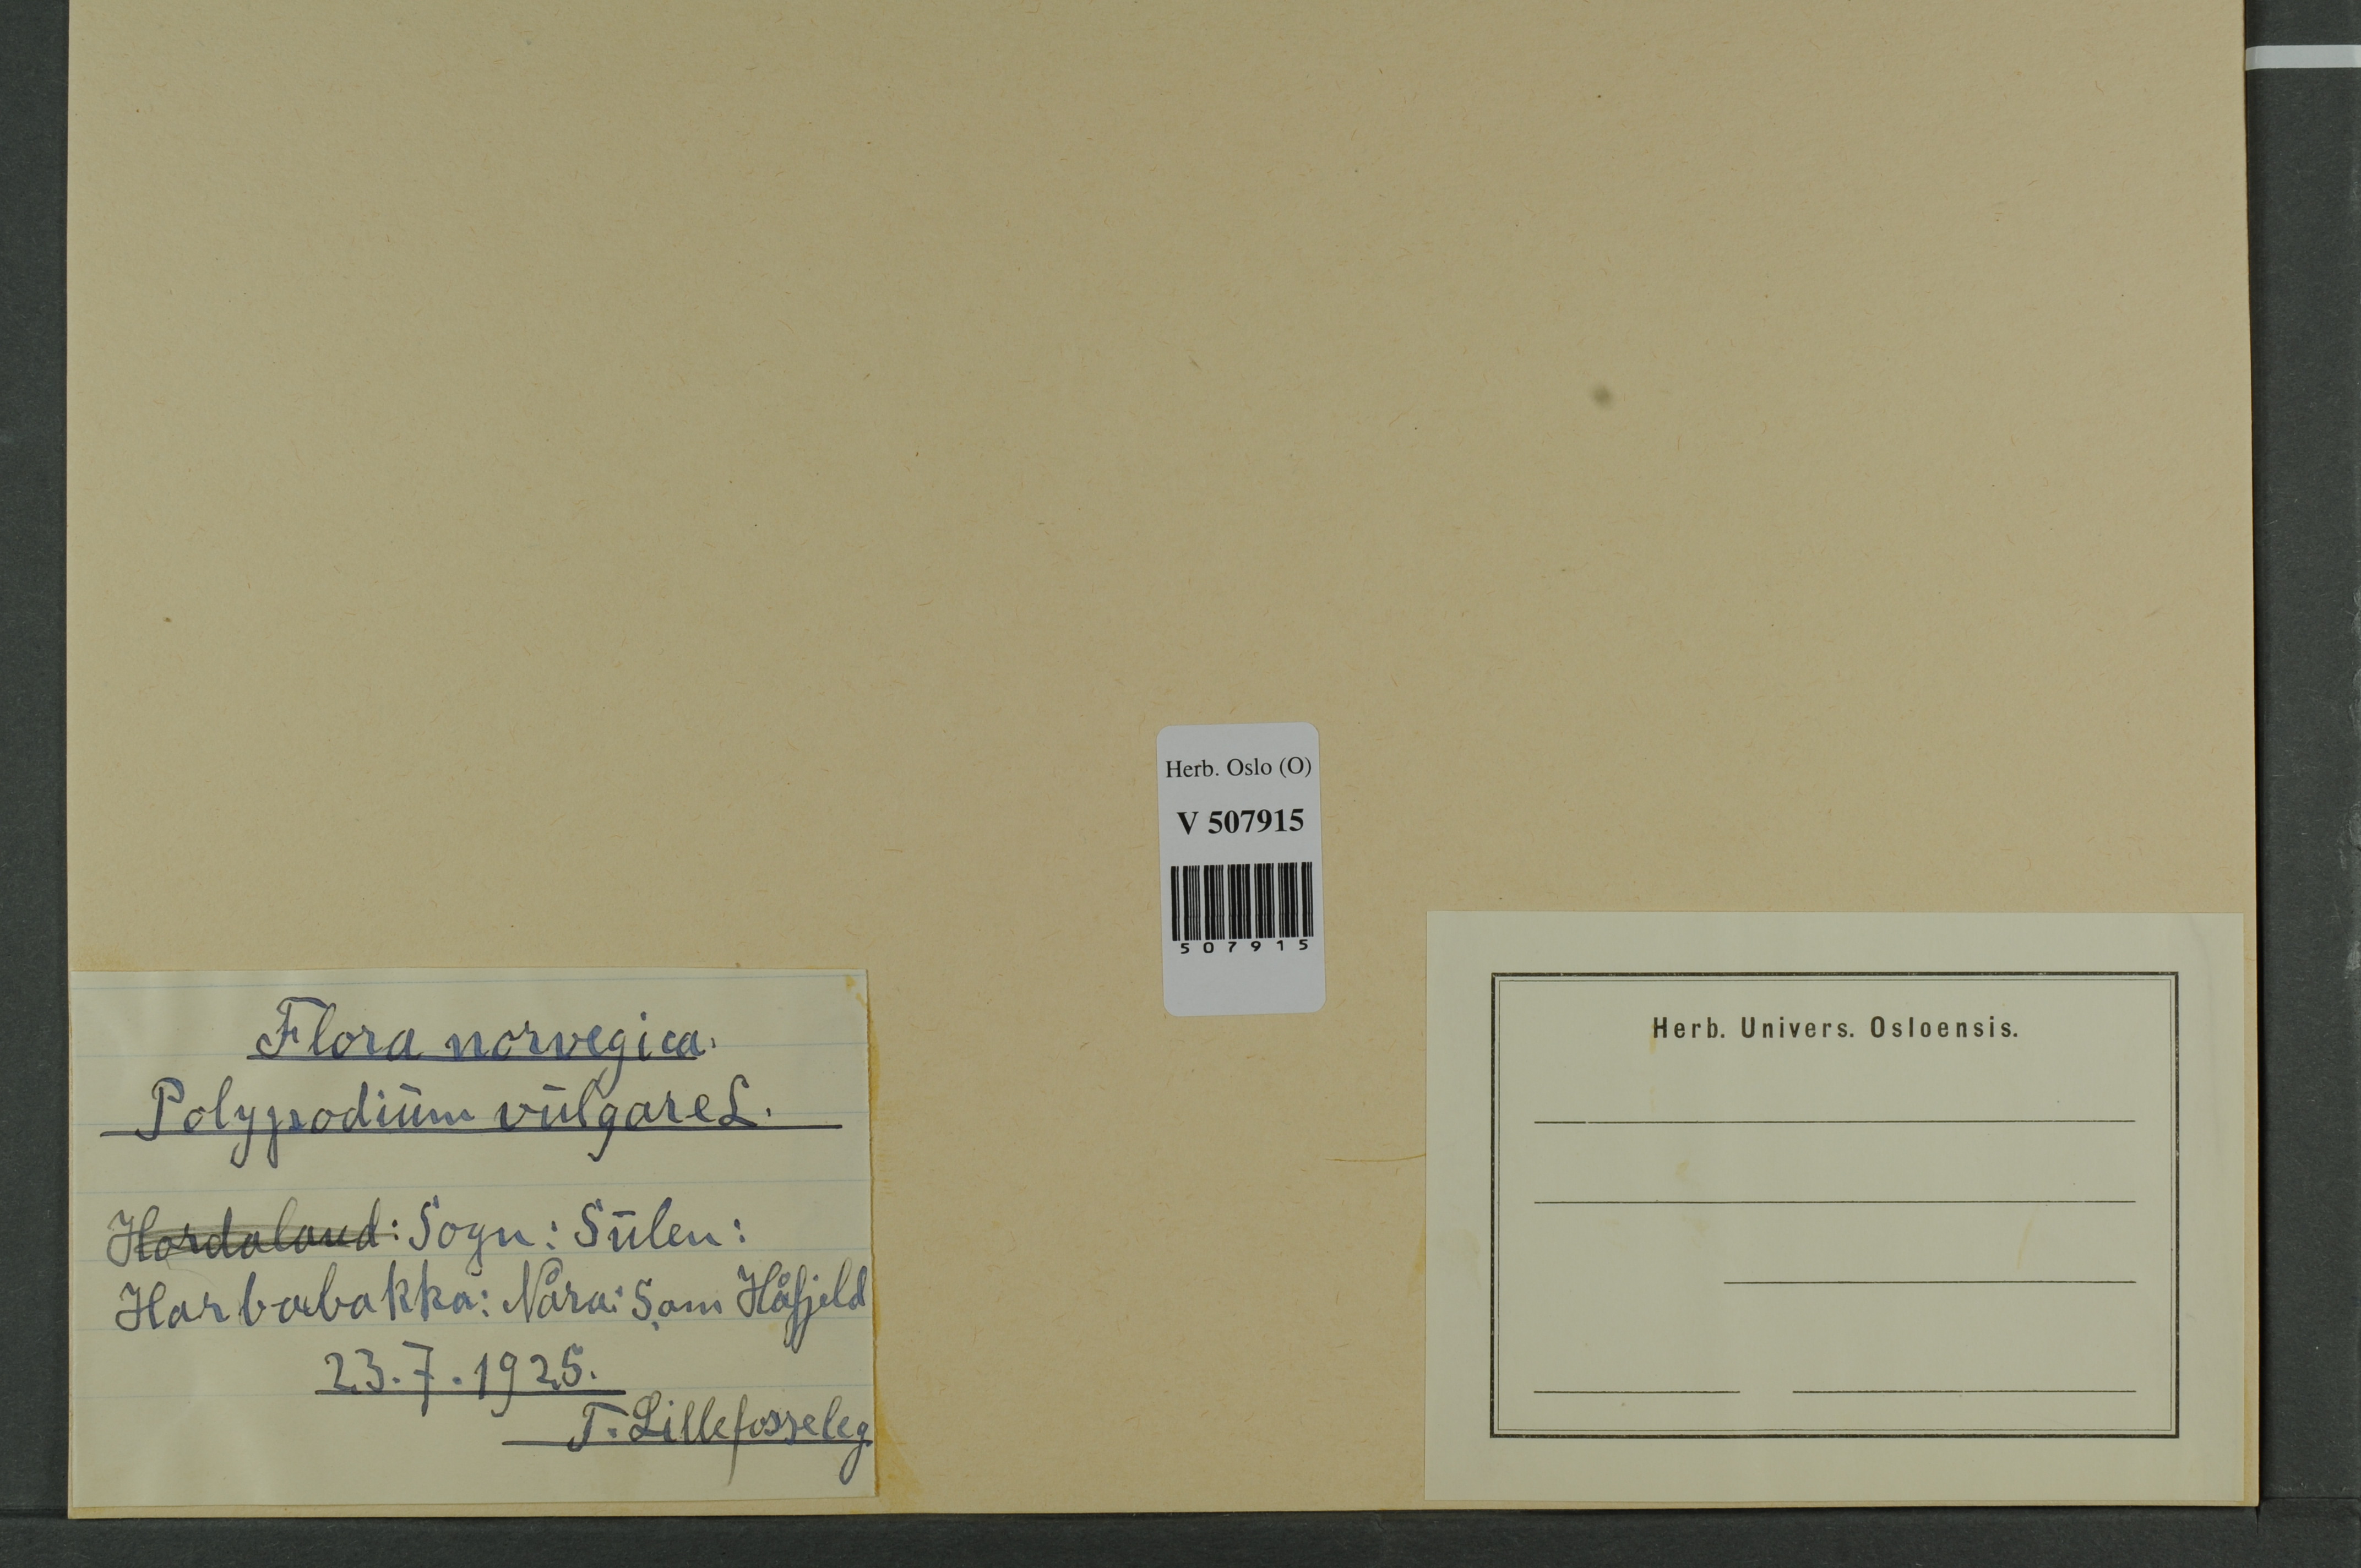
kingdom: Plantae
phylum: Tracheophyta
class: Polypodiopsida
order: Polypodiales
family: Polypodiaceae
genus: Polypodium
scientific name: Polypodium vulgare
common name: Common polypody
